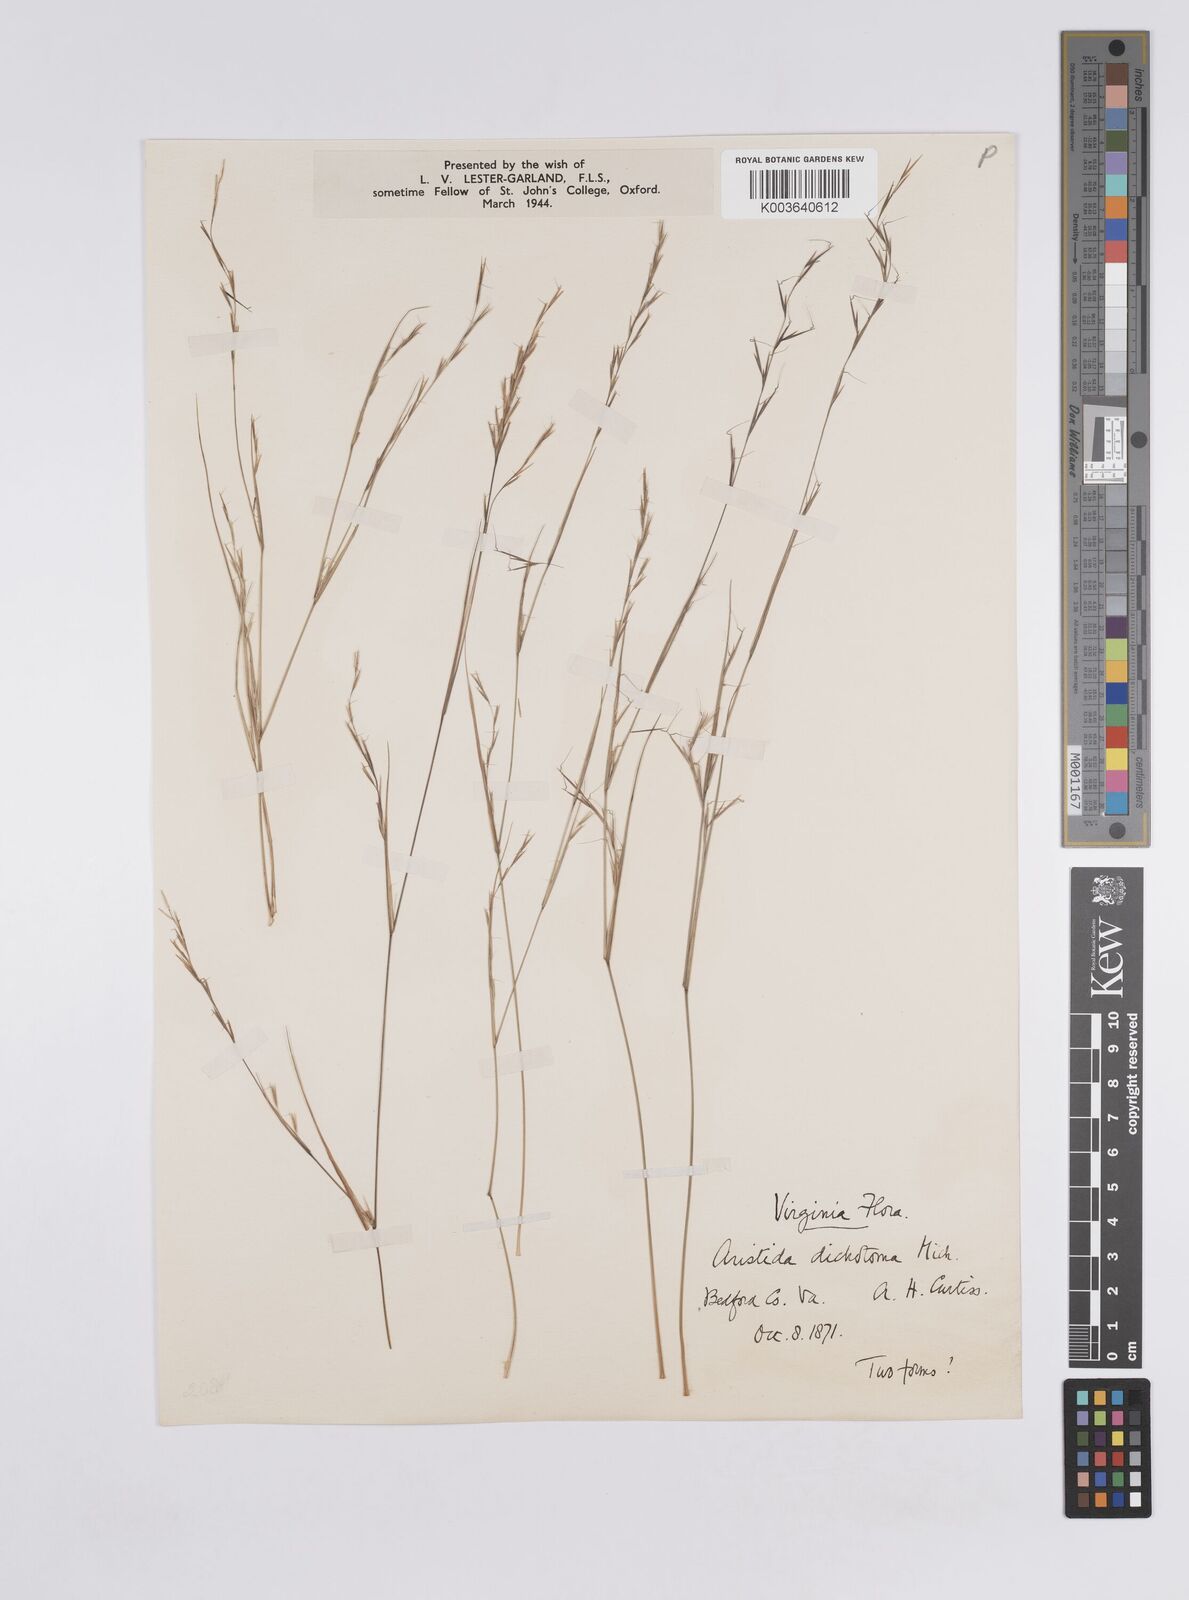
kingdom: Plantae
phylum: Tracheophyta
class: Liliopsida
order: Poales
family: Poaceae
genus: Aristida
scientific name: Aristida dichotoma
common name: Churchmouse three-awn
